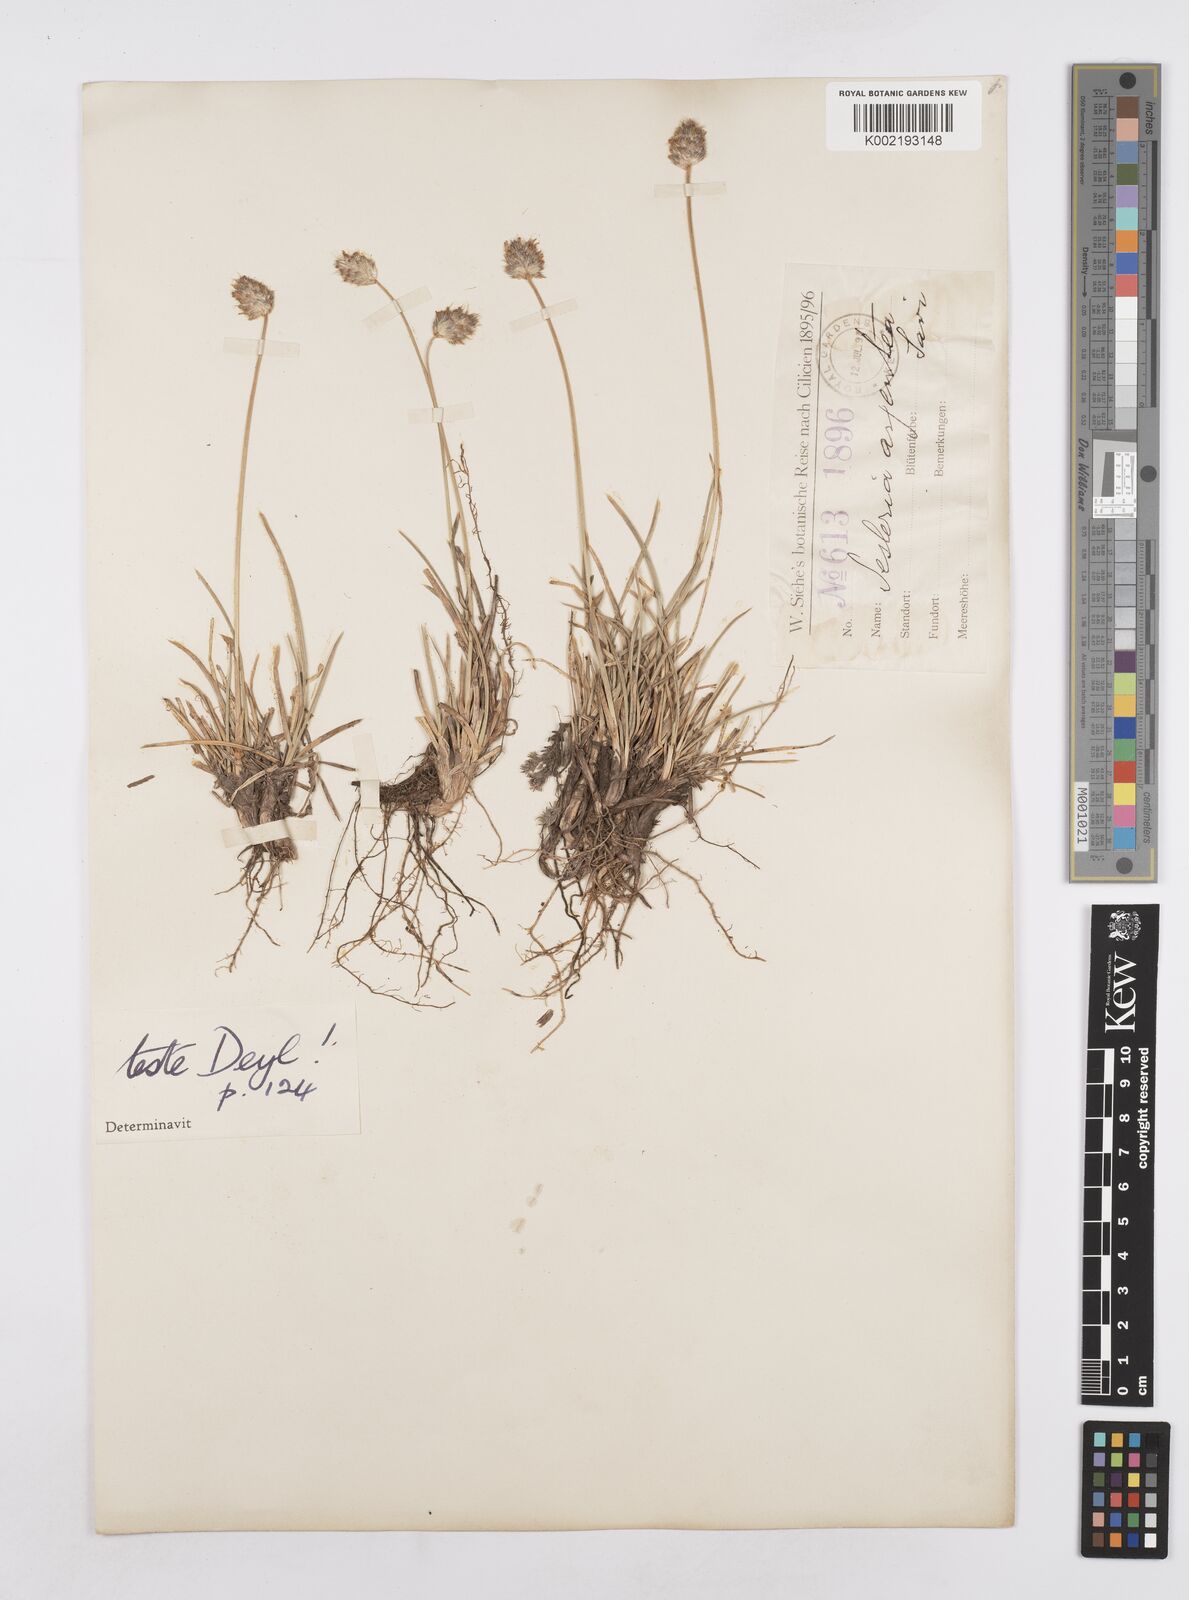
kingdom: Plantae
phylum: Tracheophyta
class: Liliopsida
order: Poales
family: Poaceae
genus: Sesleria
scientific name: Sesleria phleoides
